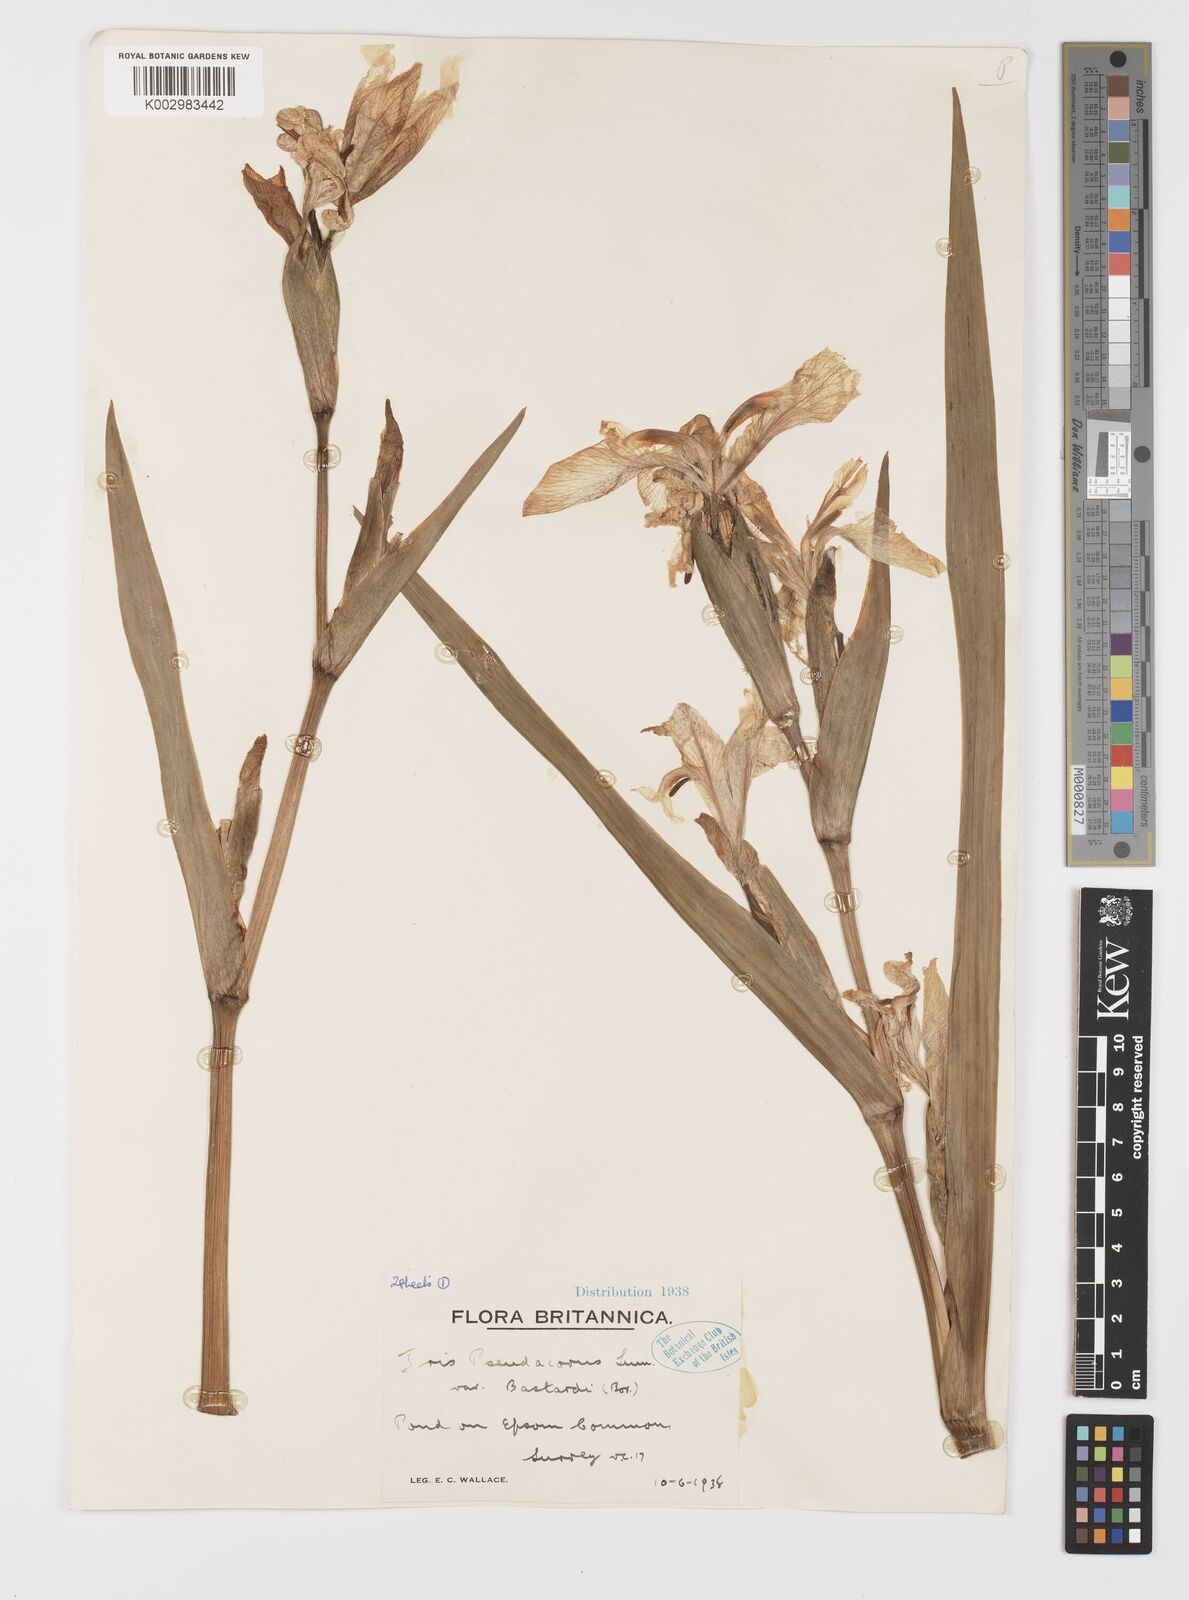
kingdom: Plantae
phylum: Tracheophyta
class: Liliopsida
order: Asparagales
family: Iridaceae
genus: Iris
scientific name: Iris pseudacorus
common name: Yellow flag
